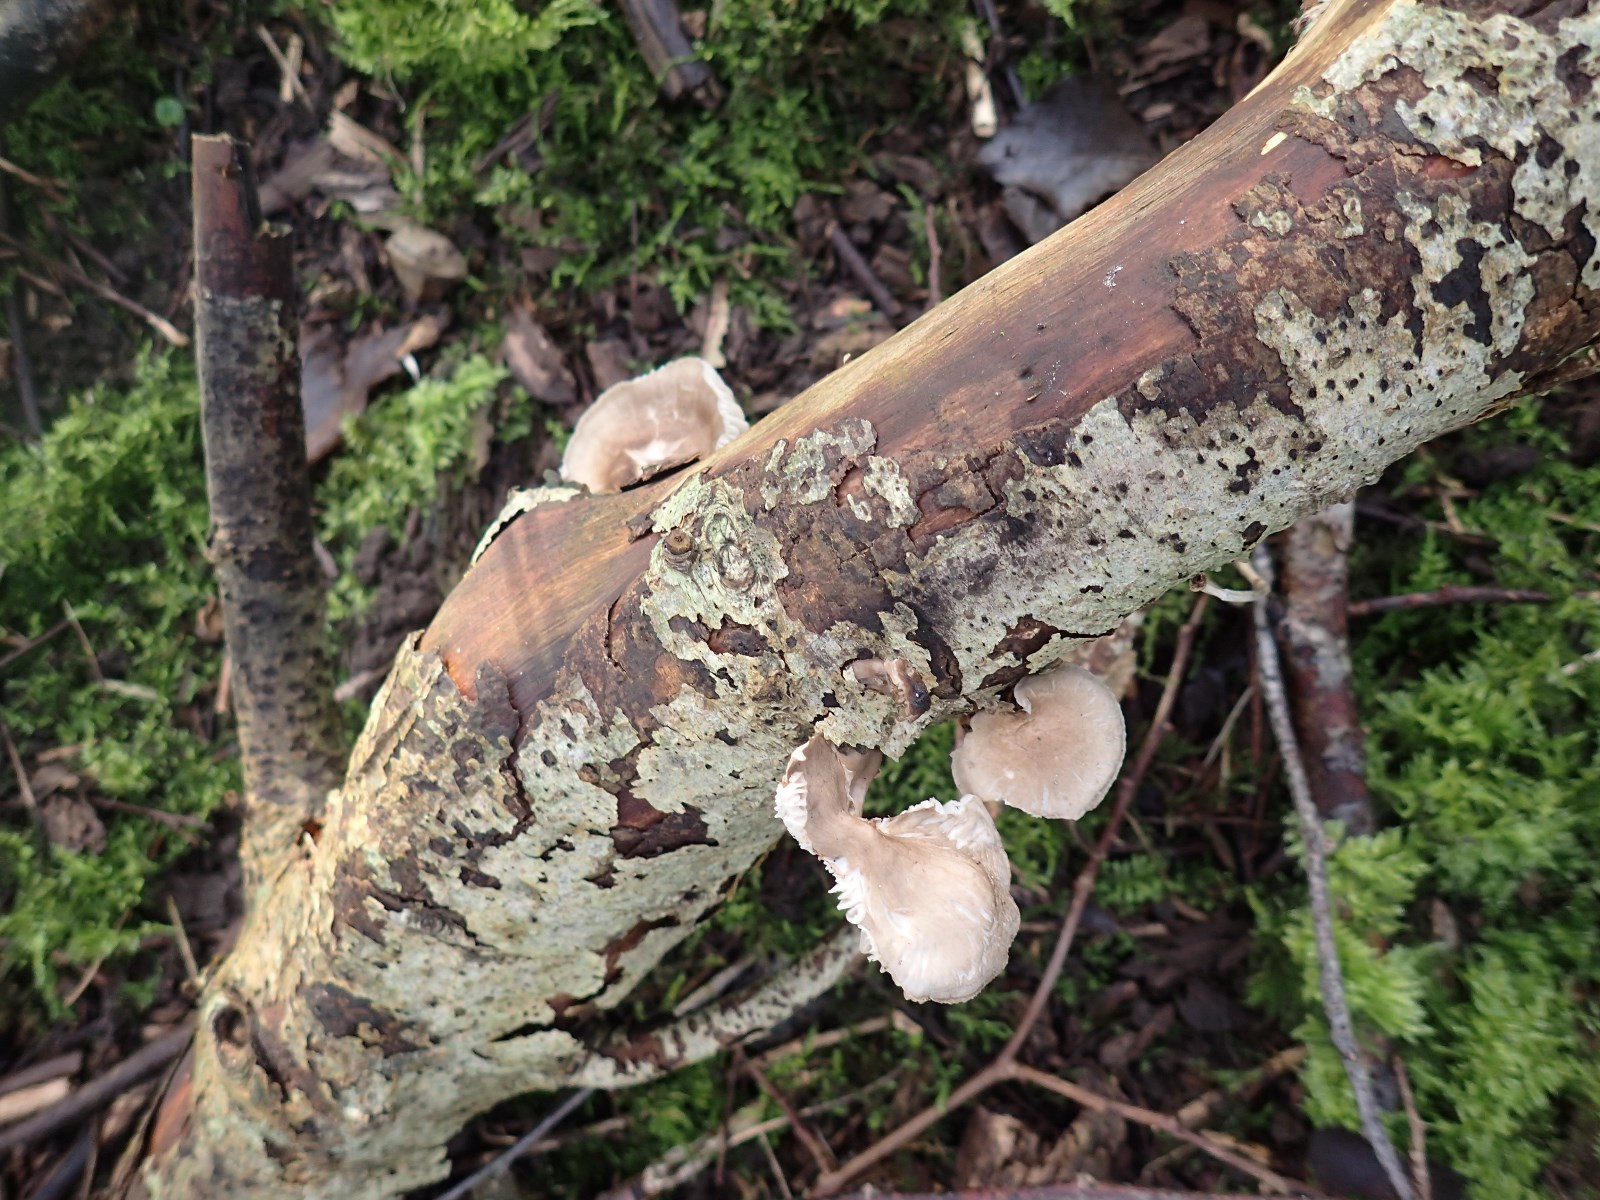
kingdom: Fungi
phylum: Basidiomycota
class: Agaricomycetes
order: Agaricales
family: Mycenaceae
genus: Mycena
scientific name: Mycena galericulata
